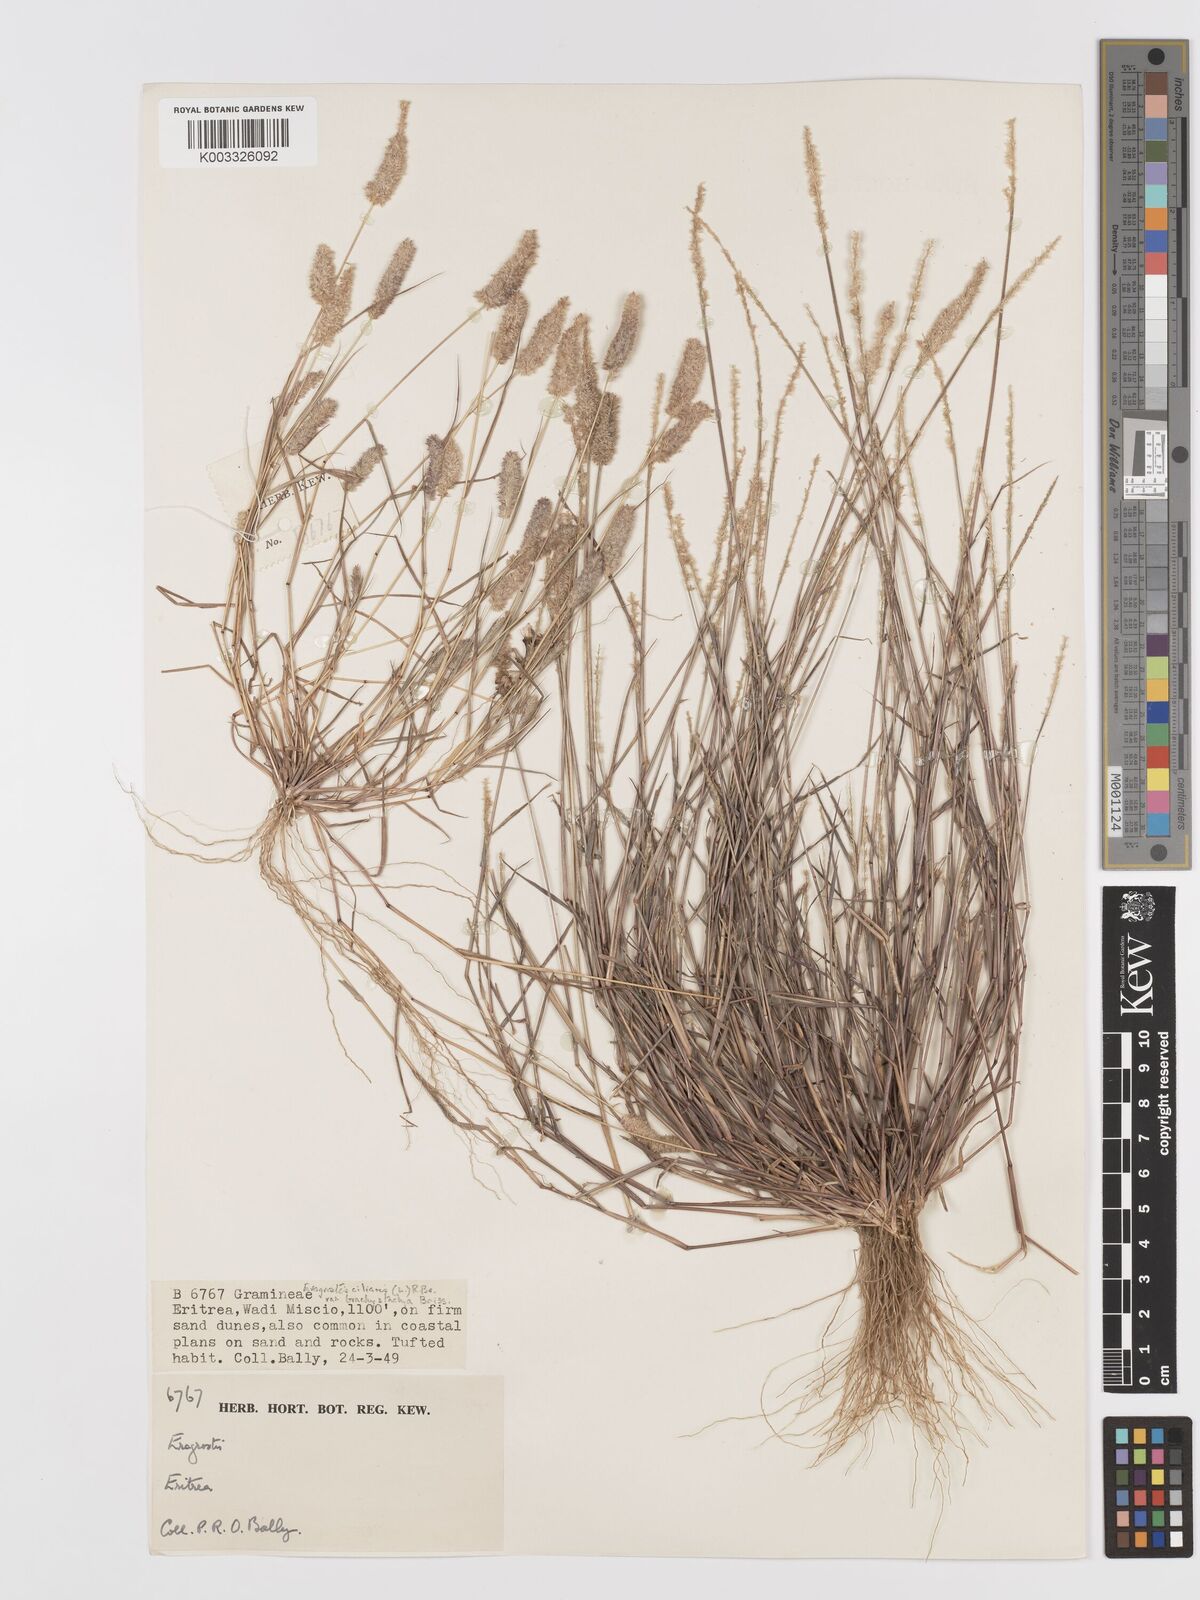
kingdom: Plantae
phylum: Tracheophyta
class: Liliopsida
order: Poales
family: Poaceae
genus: Eragrostis
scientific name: Eragrostis ciliaris
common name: Gophertail lovegrass
